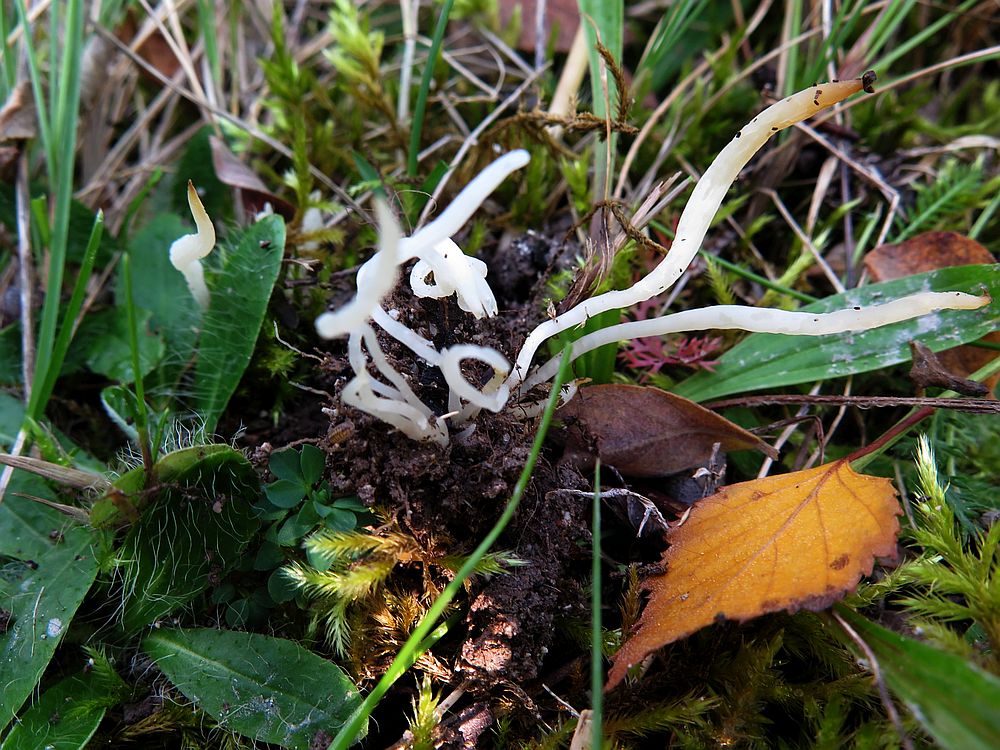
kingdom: Fungi
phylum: Basidiomycota
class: Agaricomycetes
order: Agaricales
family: Clavariaceae
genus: Clavaria
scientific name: Clavaria falcata
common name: hvid køllesvamp
